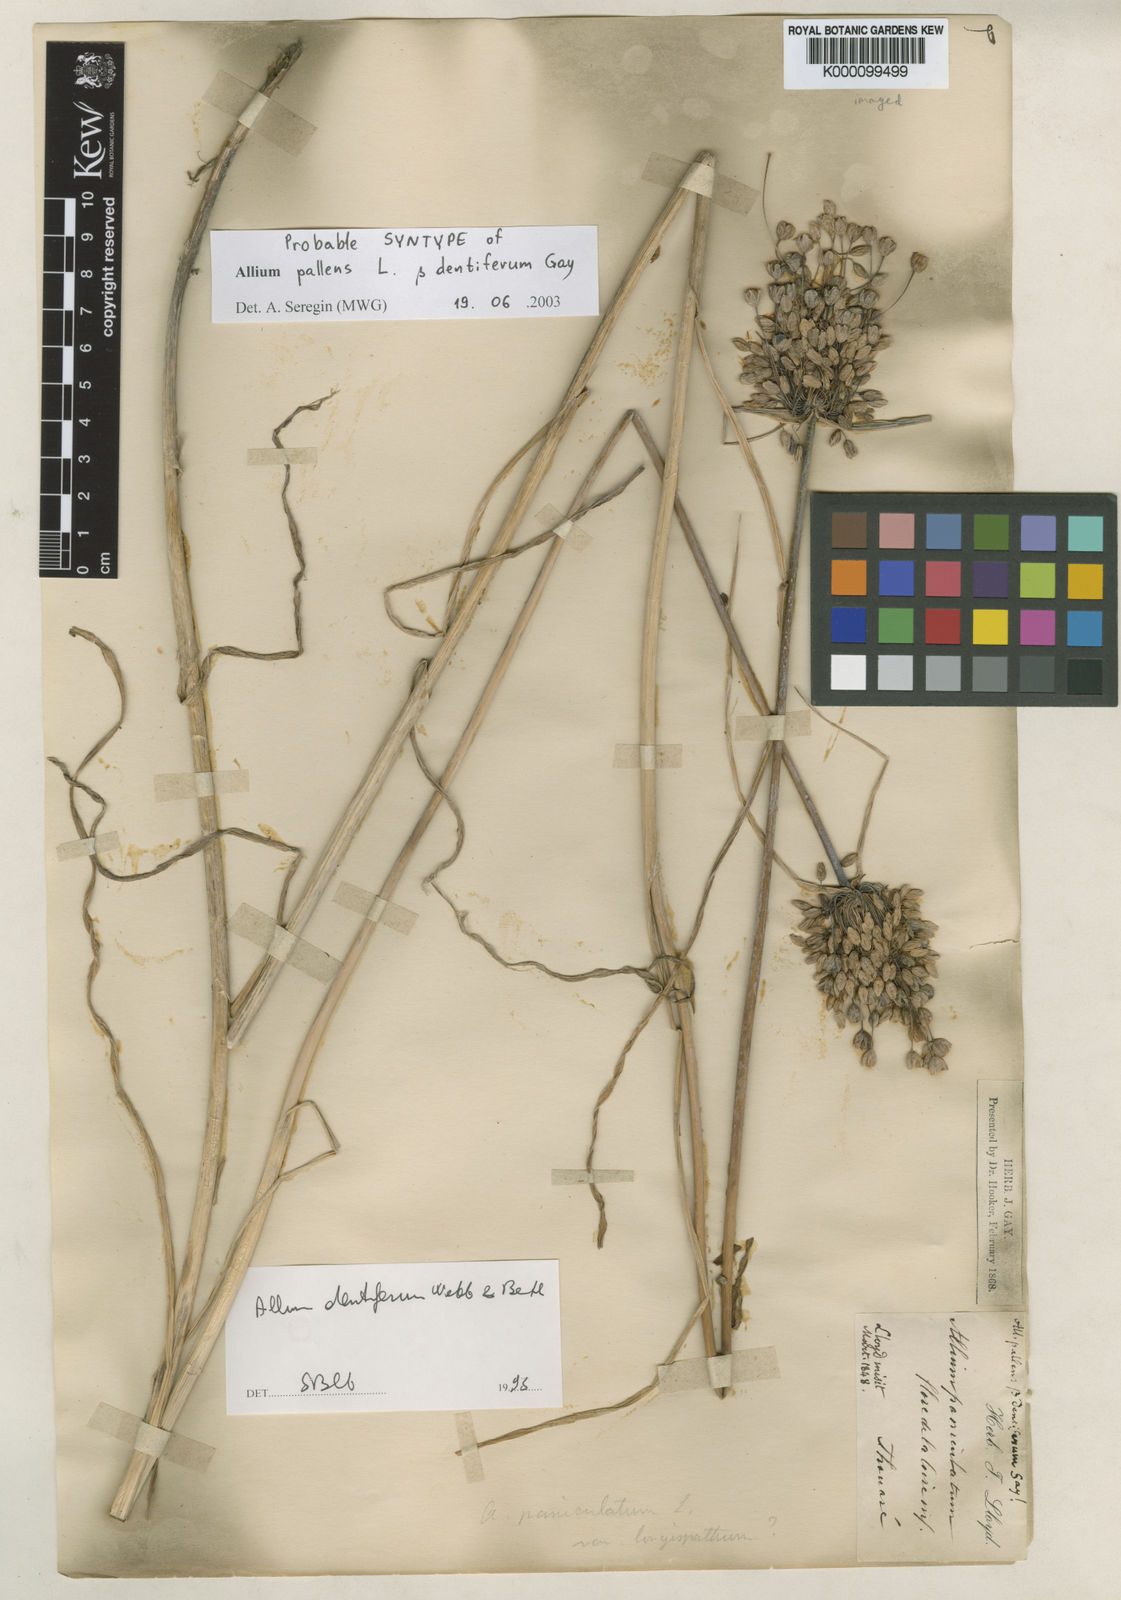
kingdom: Plantae
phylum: Tracheophyta
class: Liliopsida
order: Asparagales
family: Amaryllidaceae
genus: Allium
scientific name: Allium longispathum
